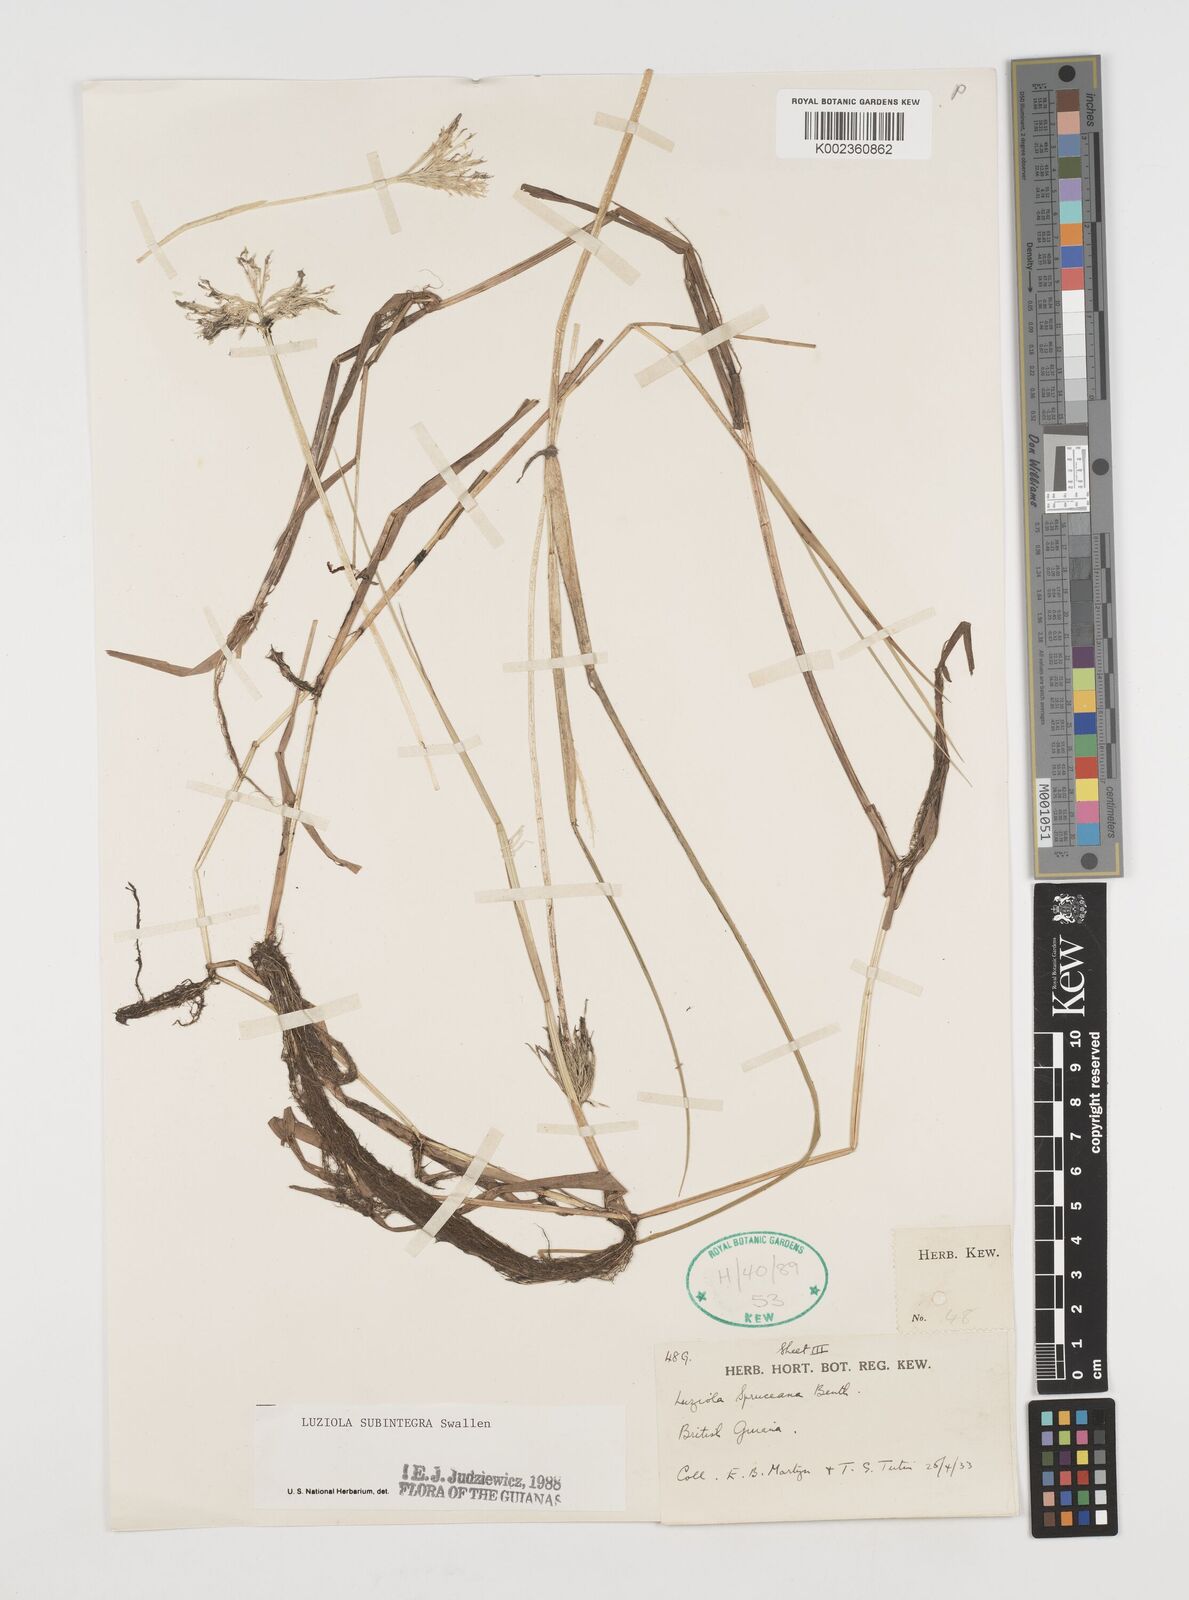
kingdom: Plantae
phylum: Tracheophyta
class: Liliopsida
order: Poales
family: Poaceae
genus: Luziola
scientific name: Luziola subintegra
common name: Large watergrass
